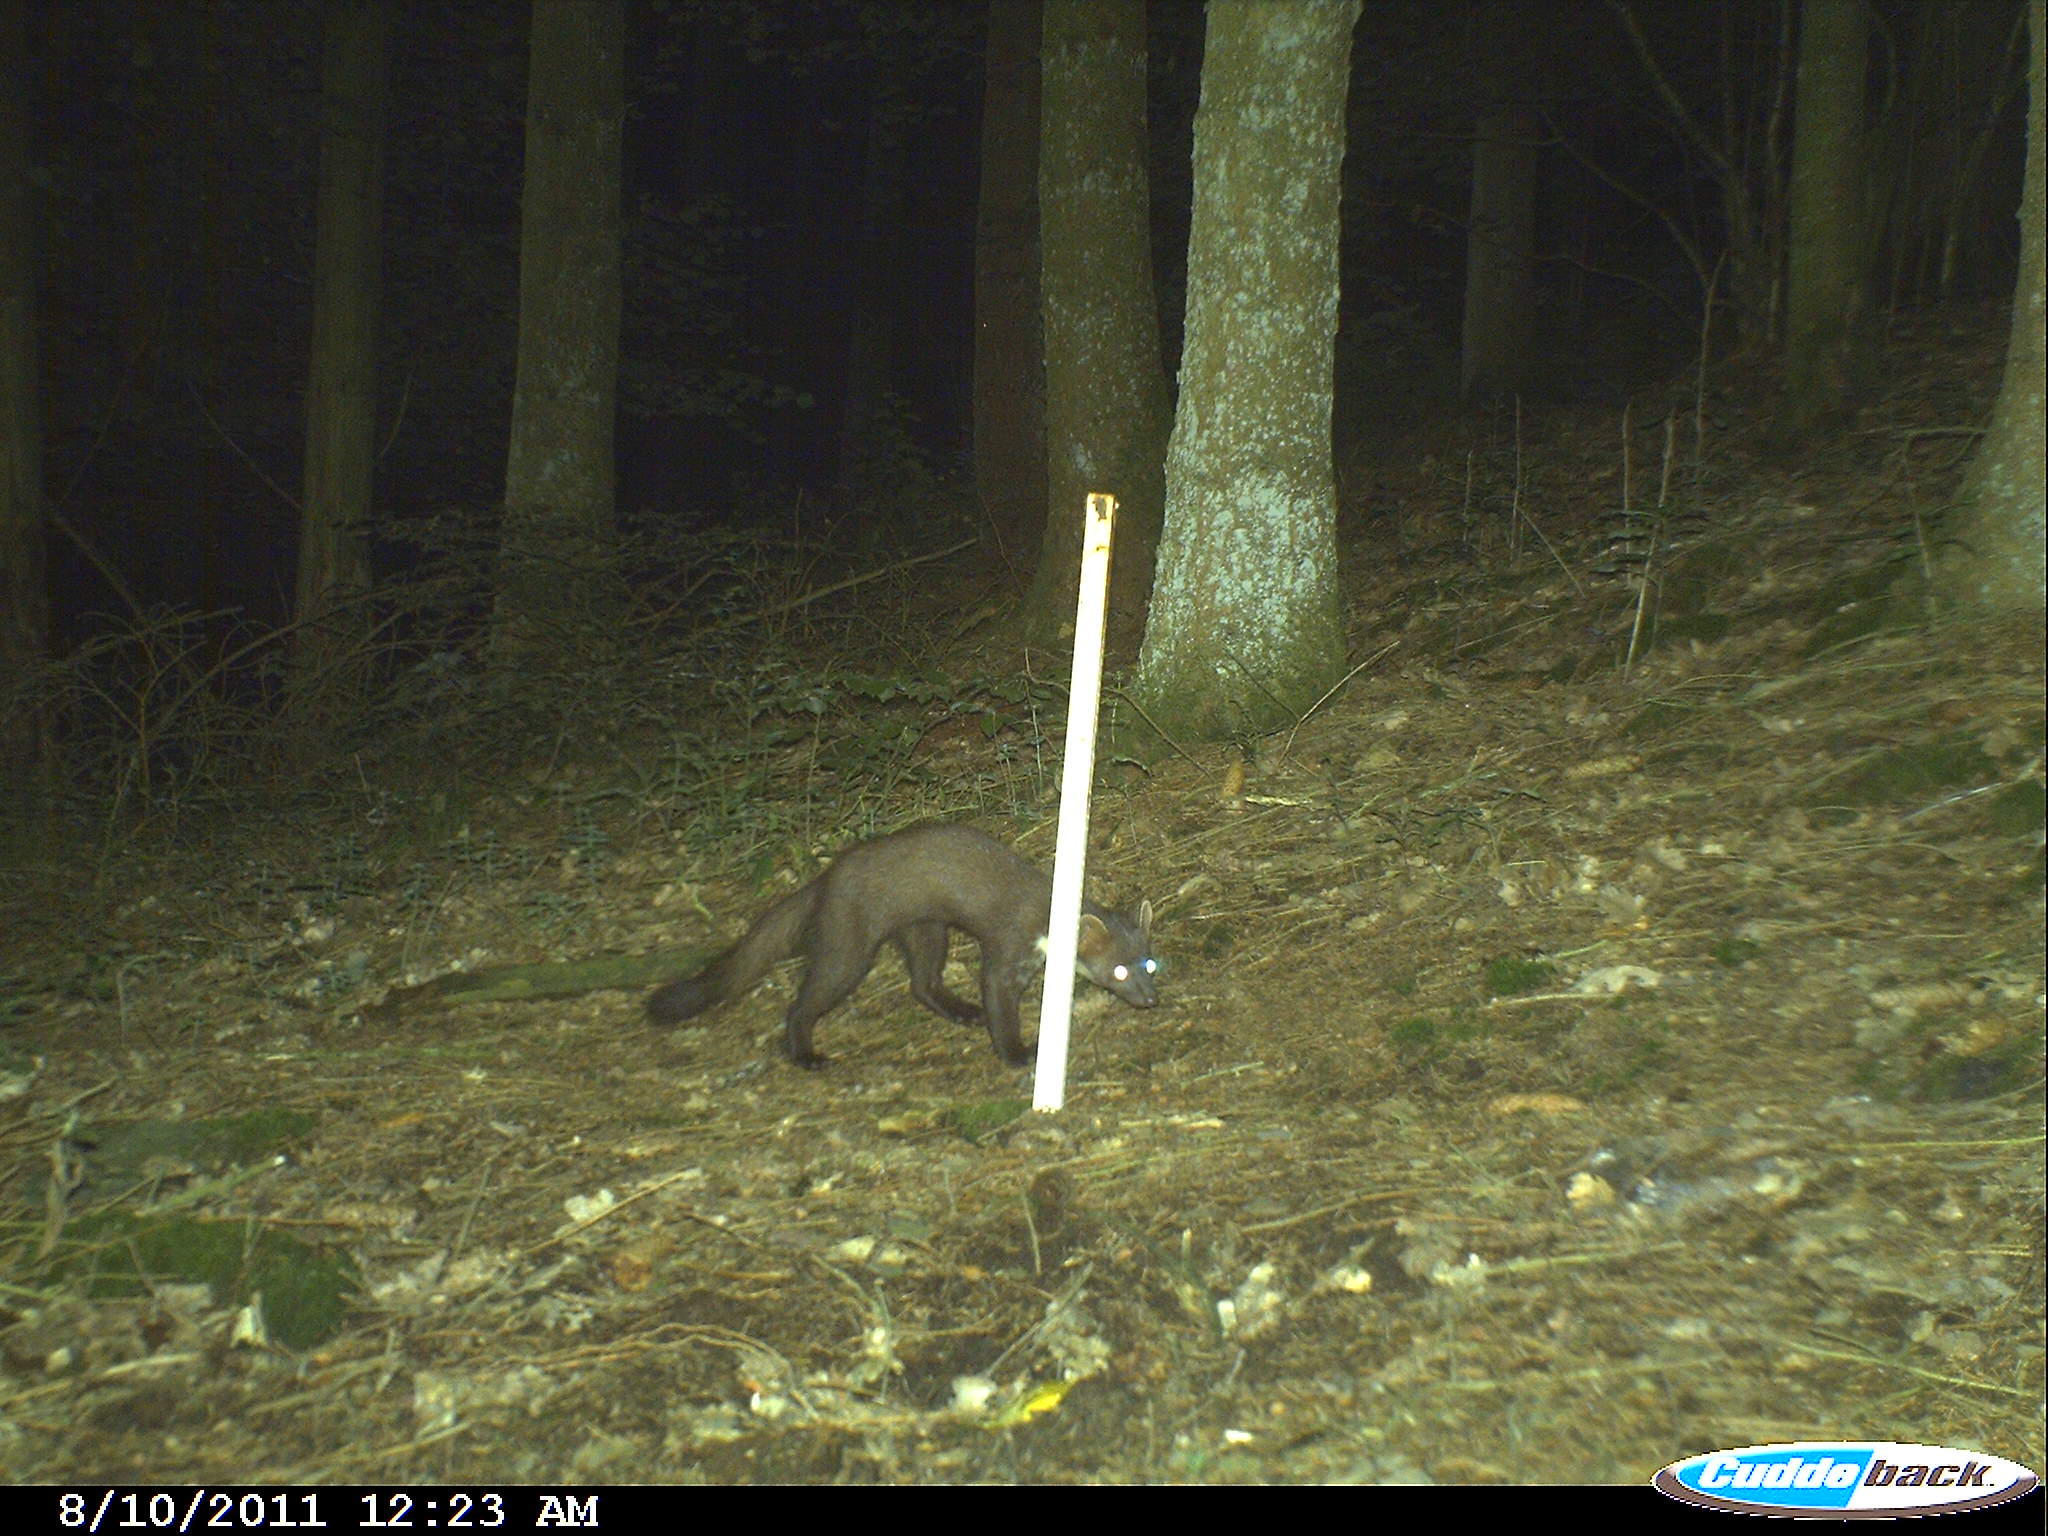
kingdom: Animalia
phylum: Chordata
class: Mammalia
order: Carnivora
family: Mustelidae
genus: Martes
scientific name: Martes martes
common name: European pine marten
